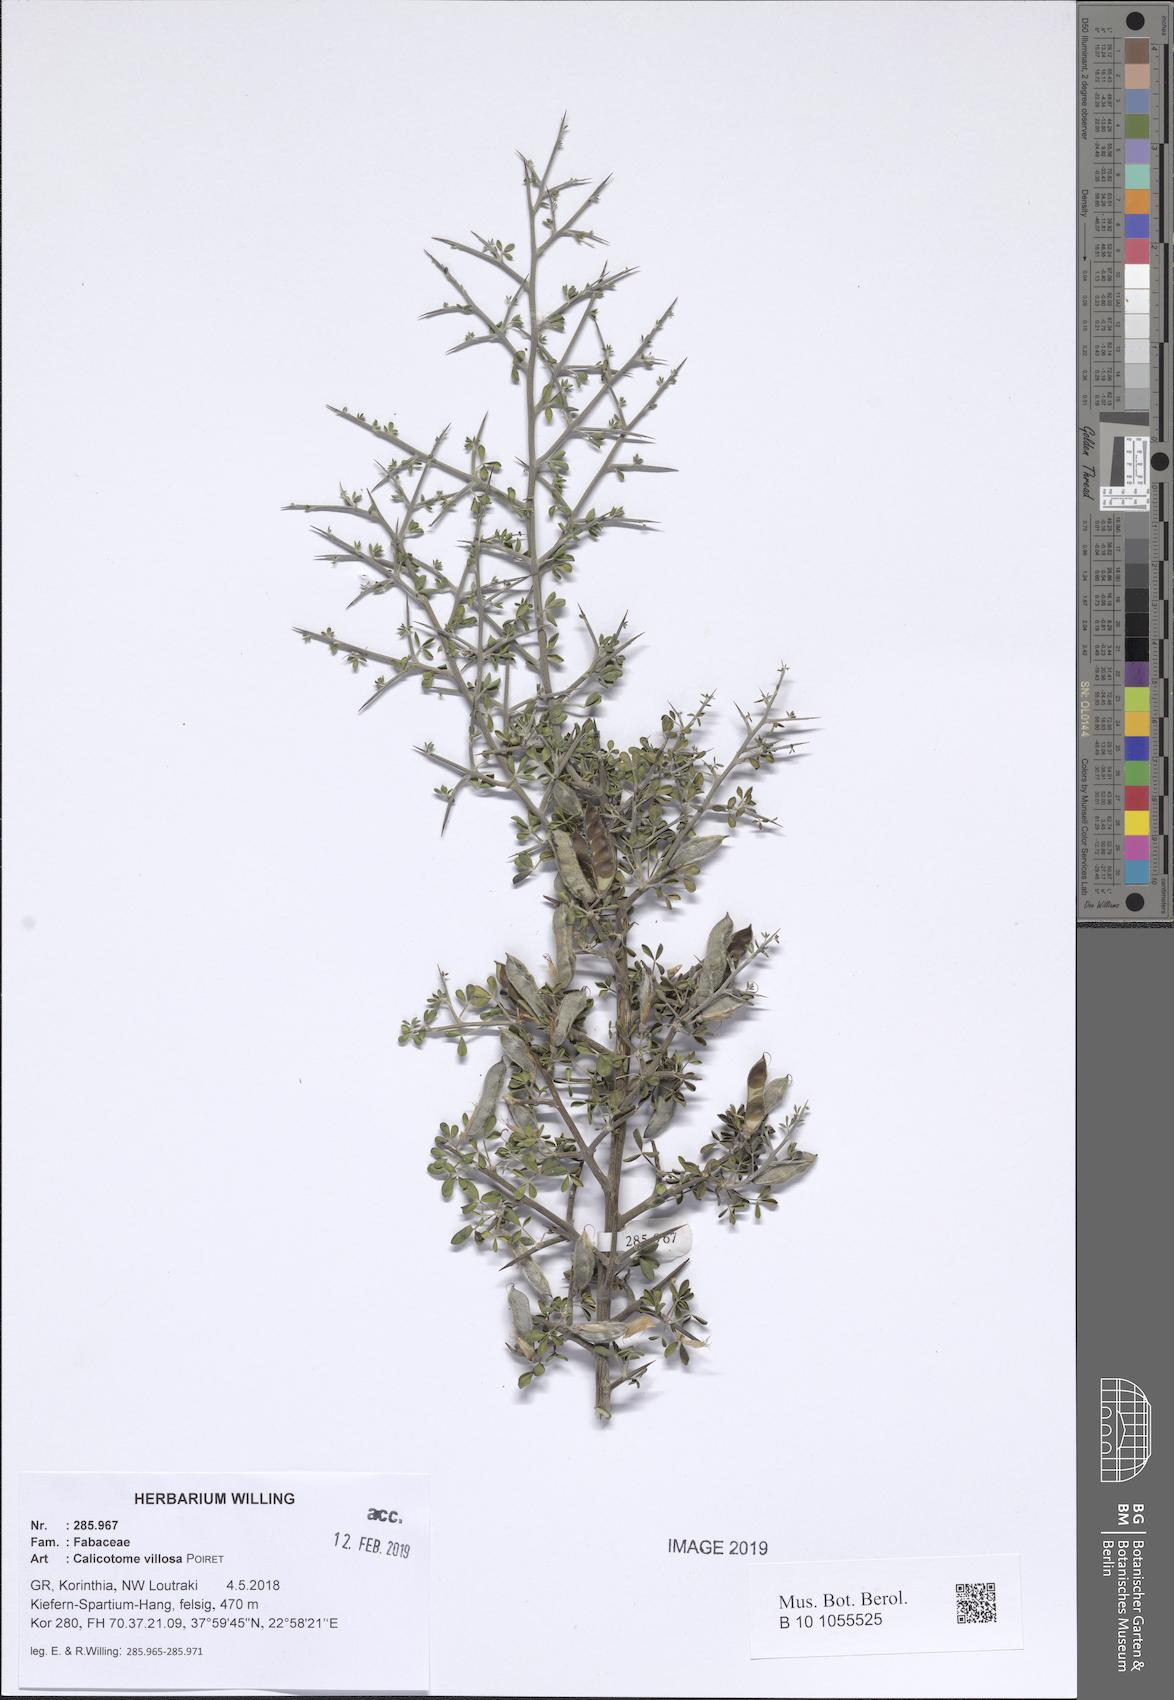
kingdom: Plantae
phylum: Tracheophyta
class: Magnoliopsida
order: Fabales
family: Fabaceae
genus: Calicotome
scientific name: Calicotome villosa
